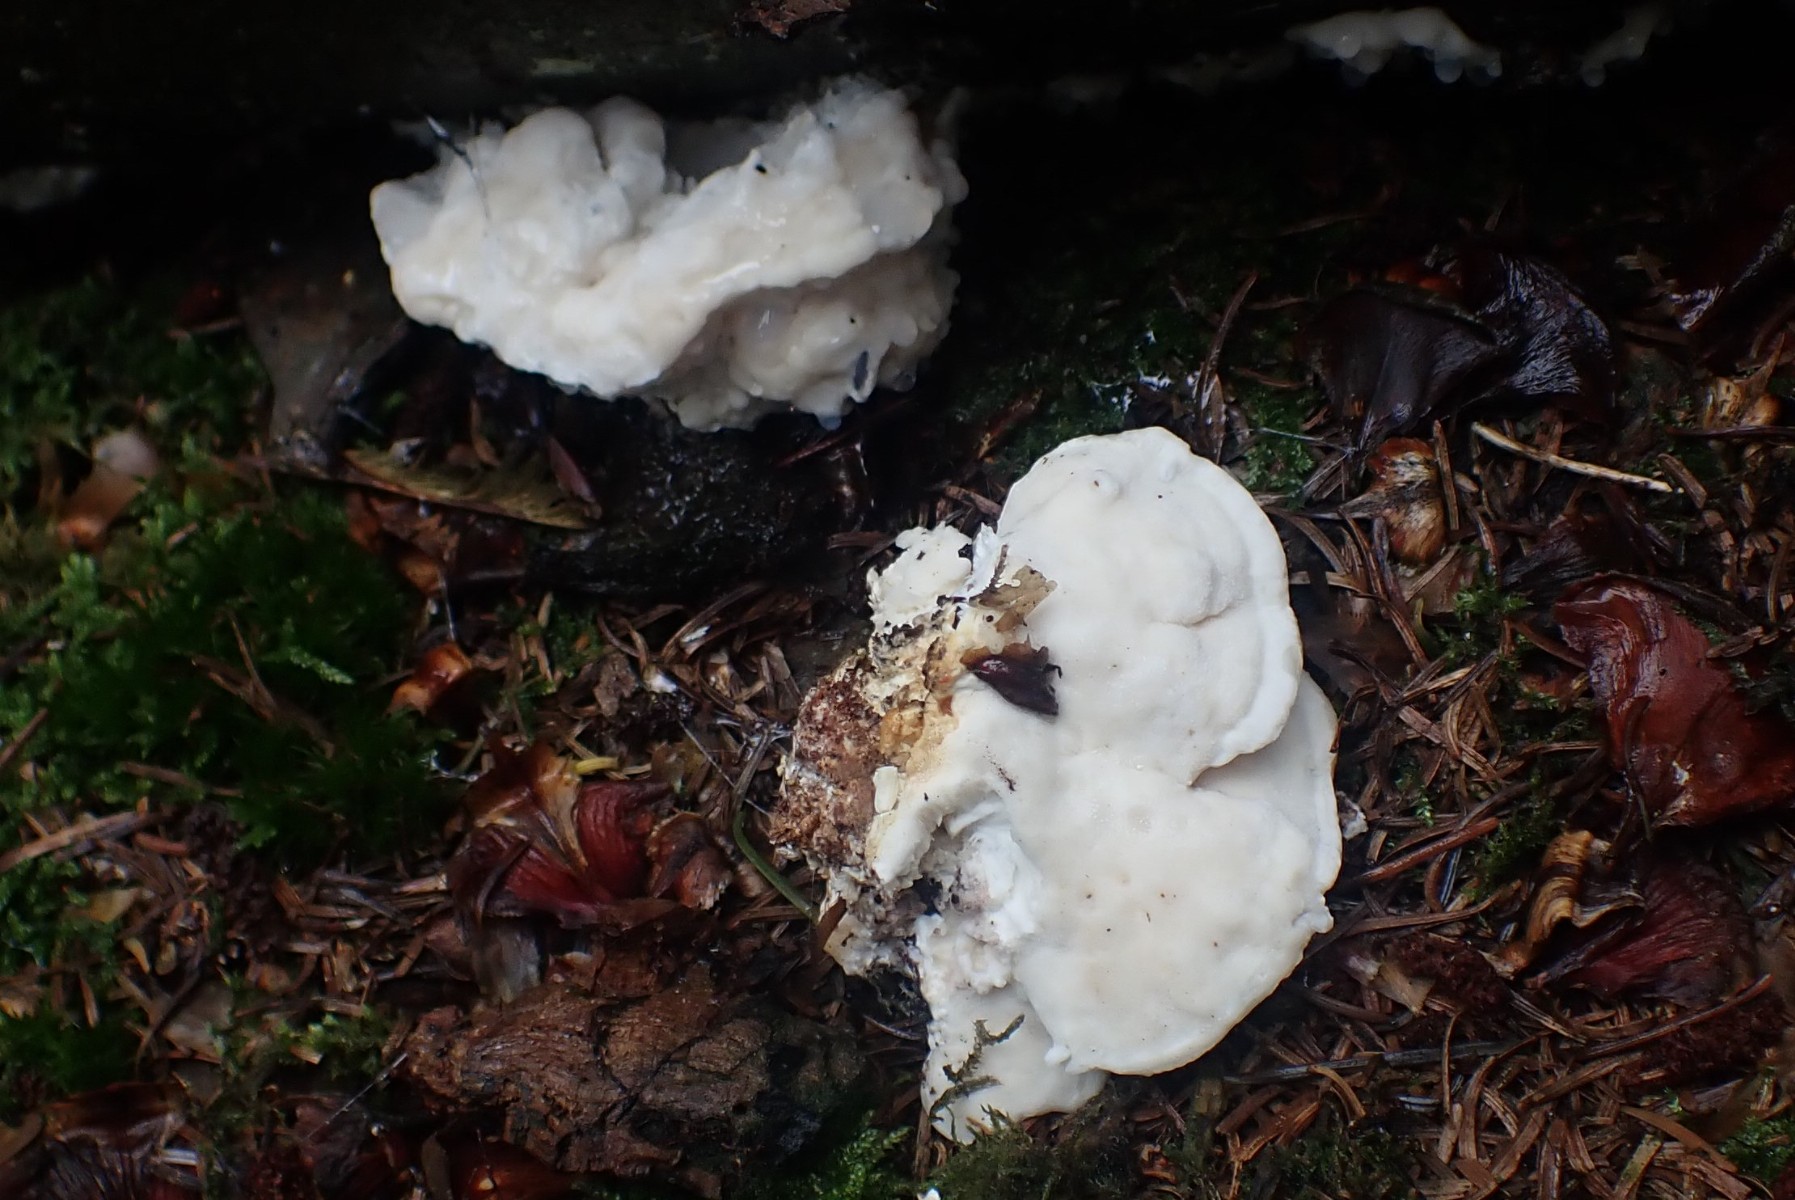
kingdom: Fungi
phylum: Basidiomycota
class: Agaricomycetes
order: Polyporales
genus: Amaropostia
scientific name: Amaropostia stiptica
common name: bitter kødporesvamp
